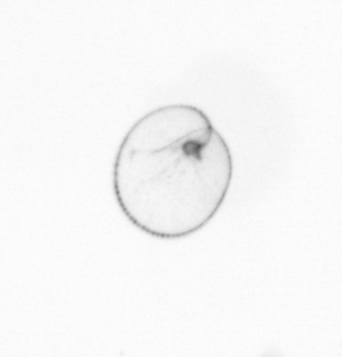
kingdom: Chromista
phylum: Myzozoa
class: Dinophyceae
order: Noctilucales
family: Noctilucaceae
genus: Noctiluca
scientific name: Noctiluca scintillans
